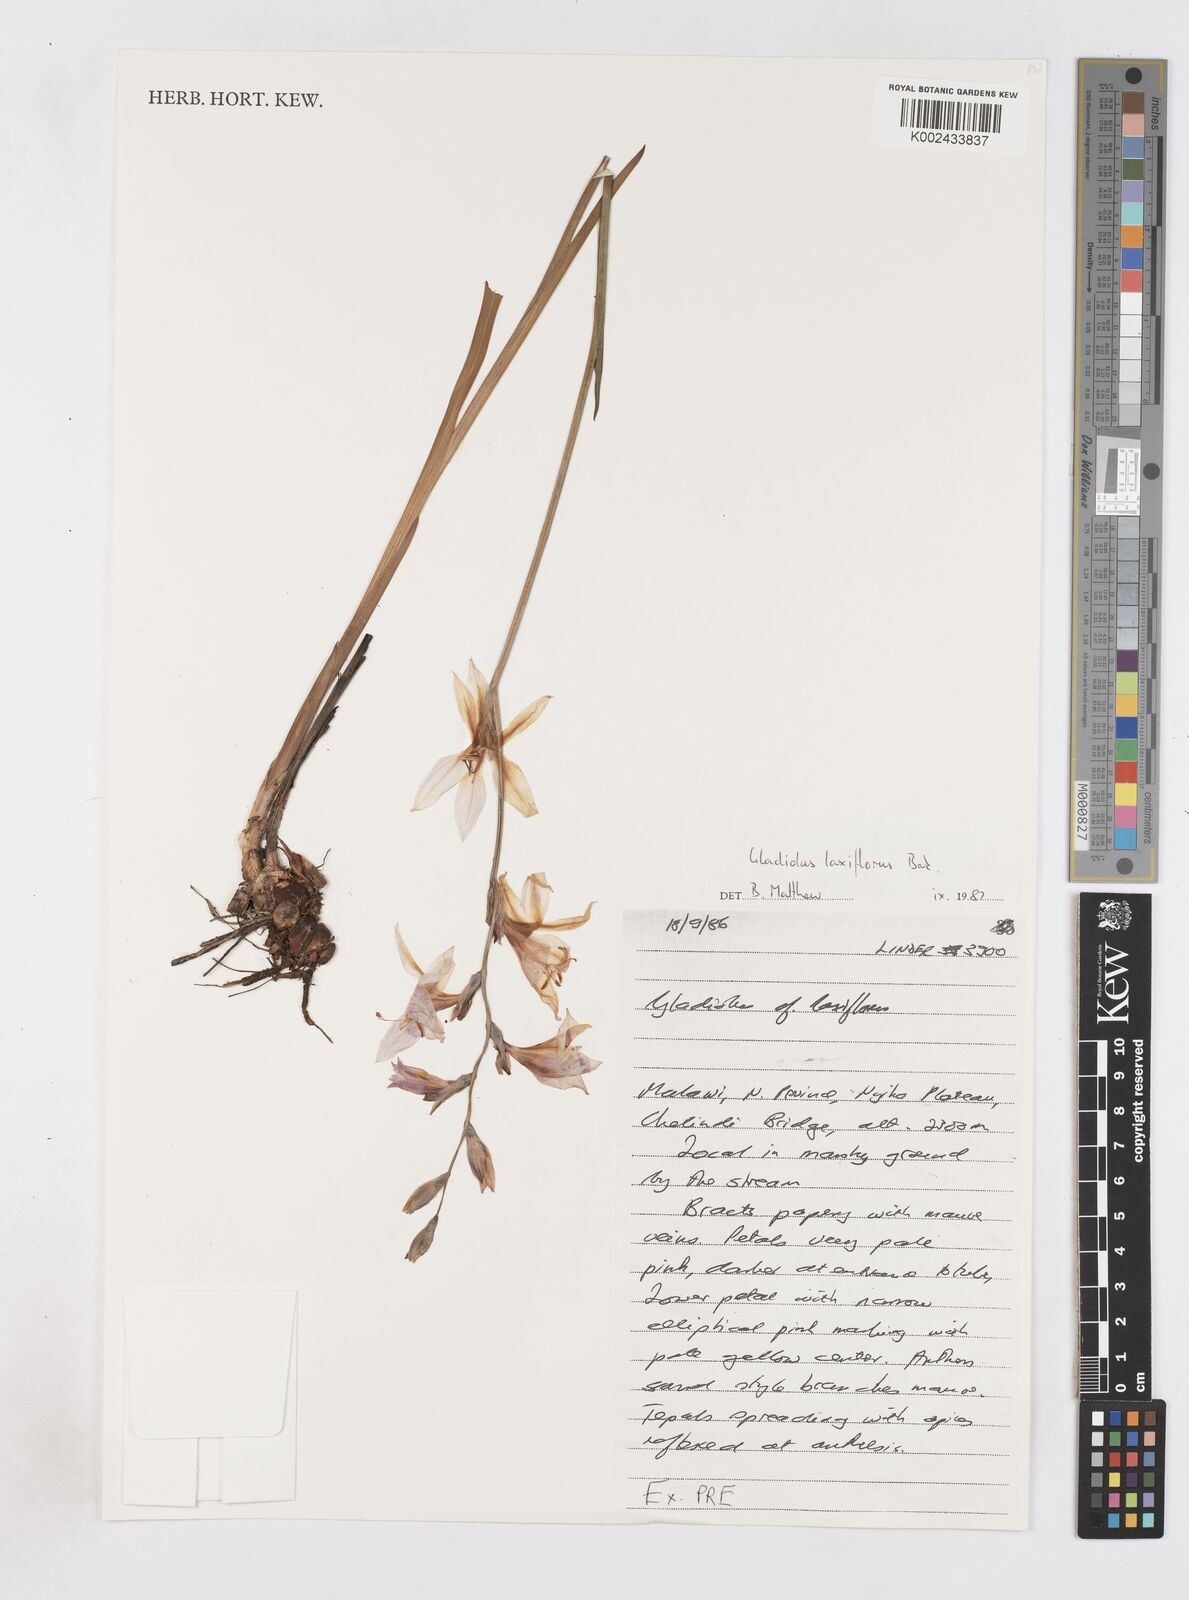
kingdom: Plantae
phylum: Tracheophyta
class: Liliopsida
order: Asparagales
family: Iridaceae
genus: Gladiolus
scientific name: Gladiolus laxiflorus
